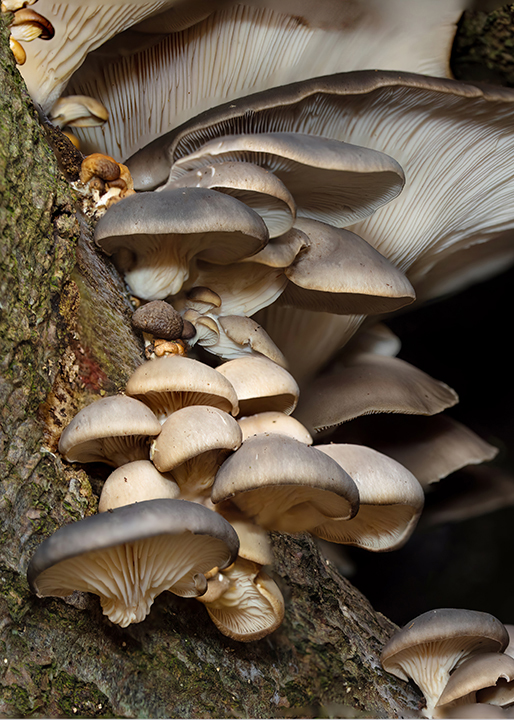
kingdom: Fungi
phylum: Basidiomycota
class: Agaricomycetes
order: Agaricales
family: Pleurotaceae
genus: Pleurotus
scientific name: Pleurotus ostreatus
